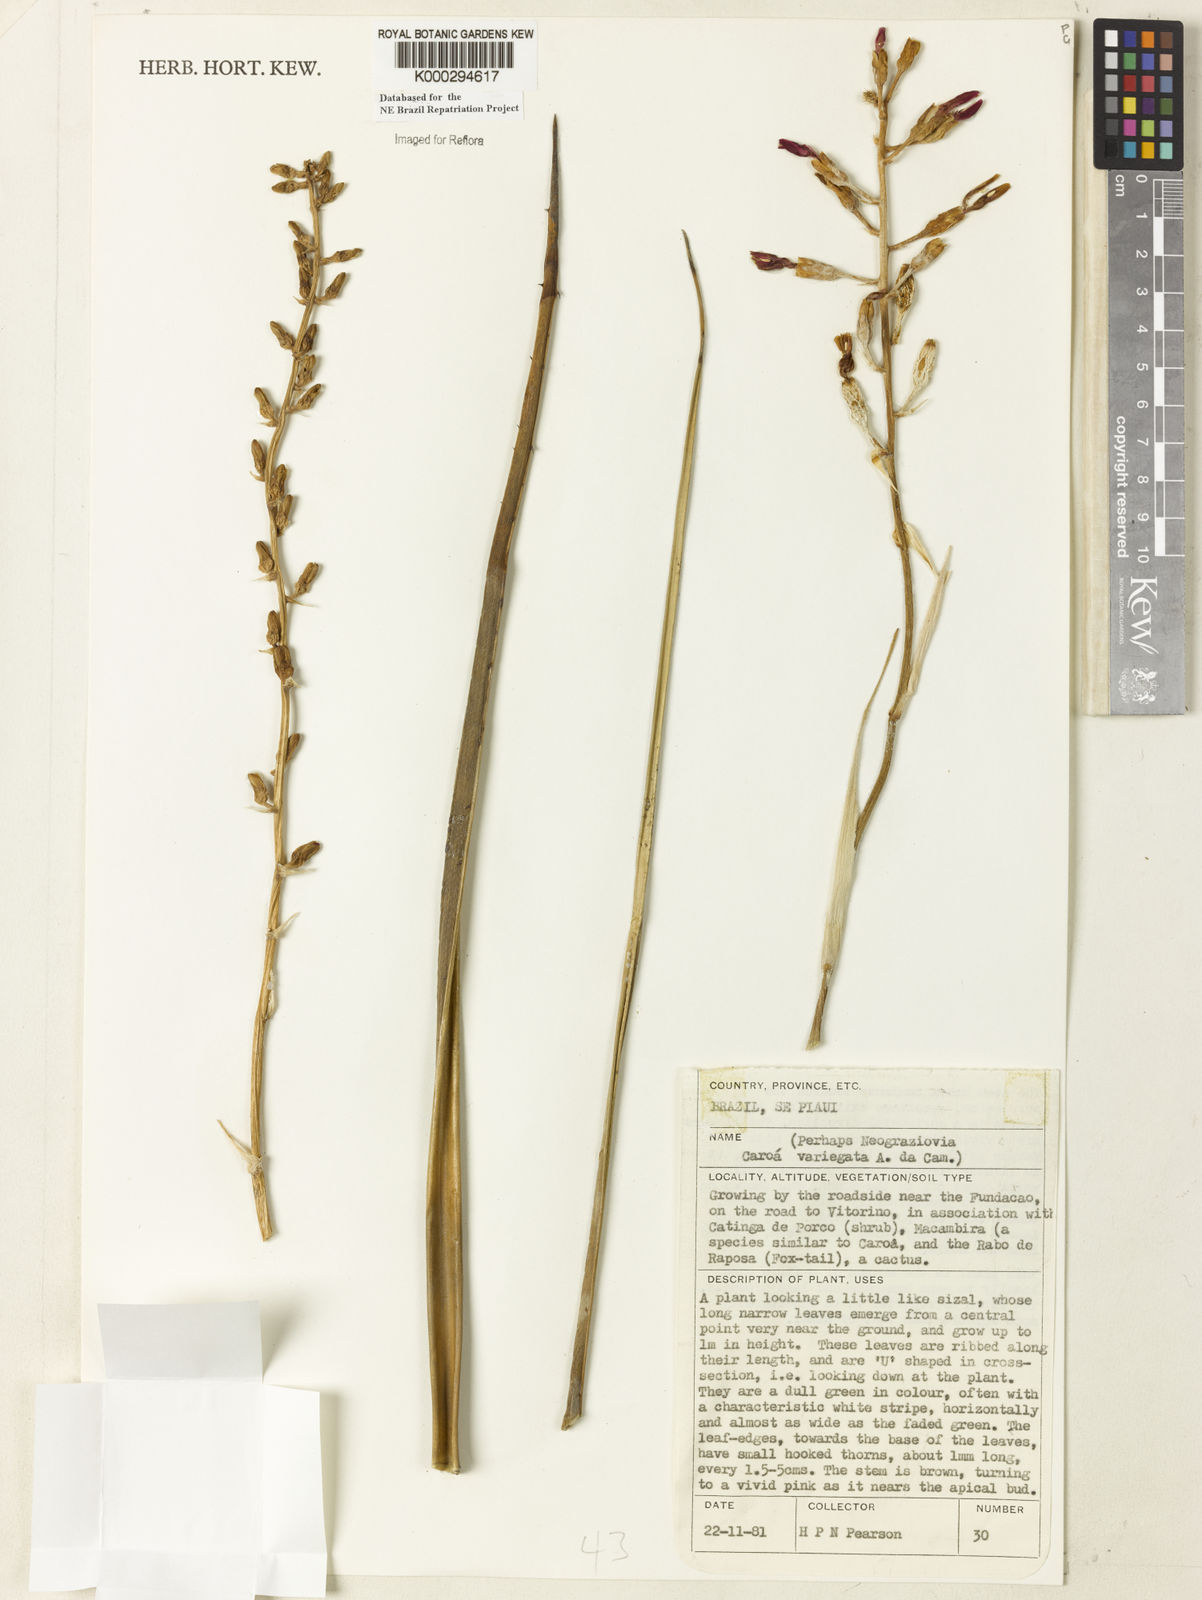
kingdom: Plantae
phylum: Tracheophyta
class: Liliopsida
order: Poales
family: Bromeliaceae
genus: Neoglaziovia
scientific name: Neoglaziovia variegata
